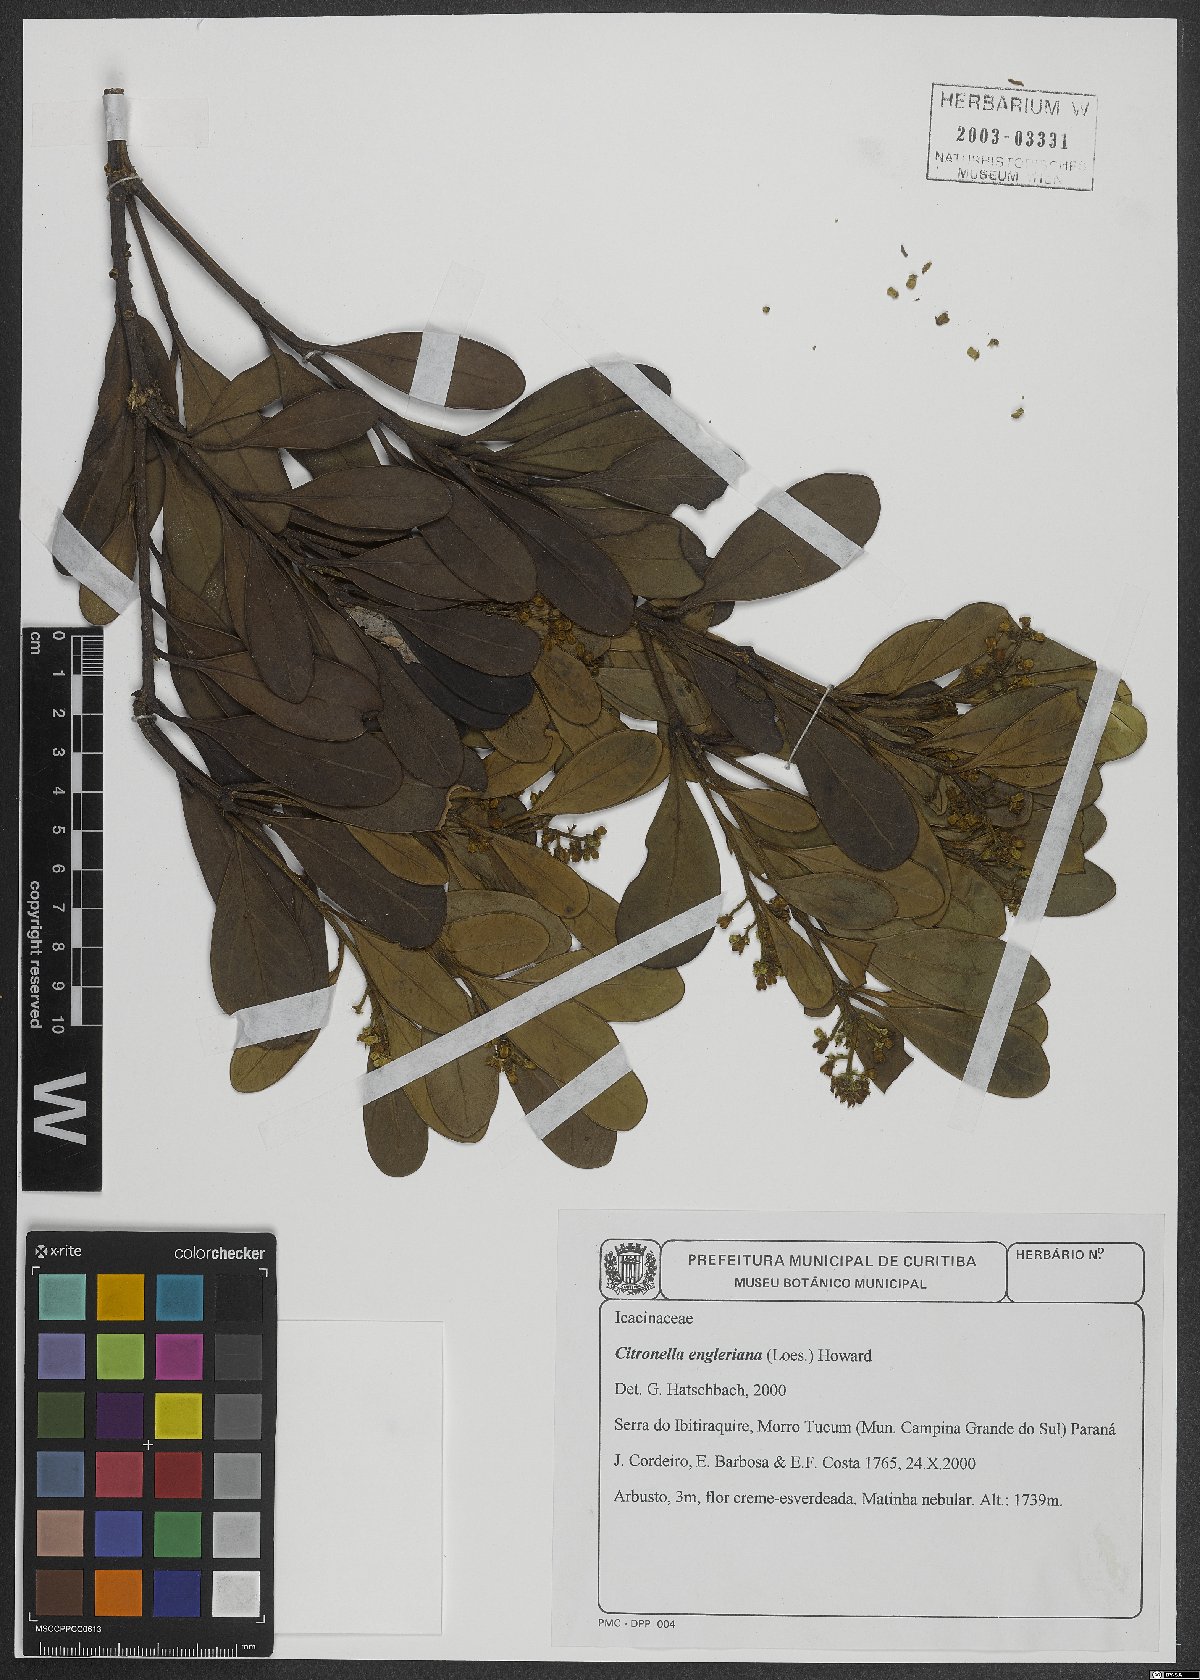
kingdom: Plantae
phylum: Tracheophyta
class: Magnoliopsida
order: Cardiopteridales
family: Cardiopteridaceae
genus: Citronella
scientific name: Citronella engleriana
